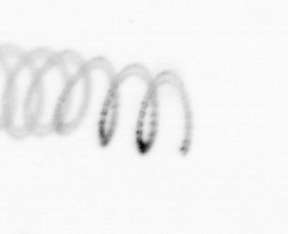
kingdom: Chromista
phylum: Ochrophyta
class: Bacillariophyceae
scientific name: Bacillariophyceae
